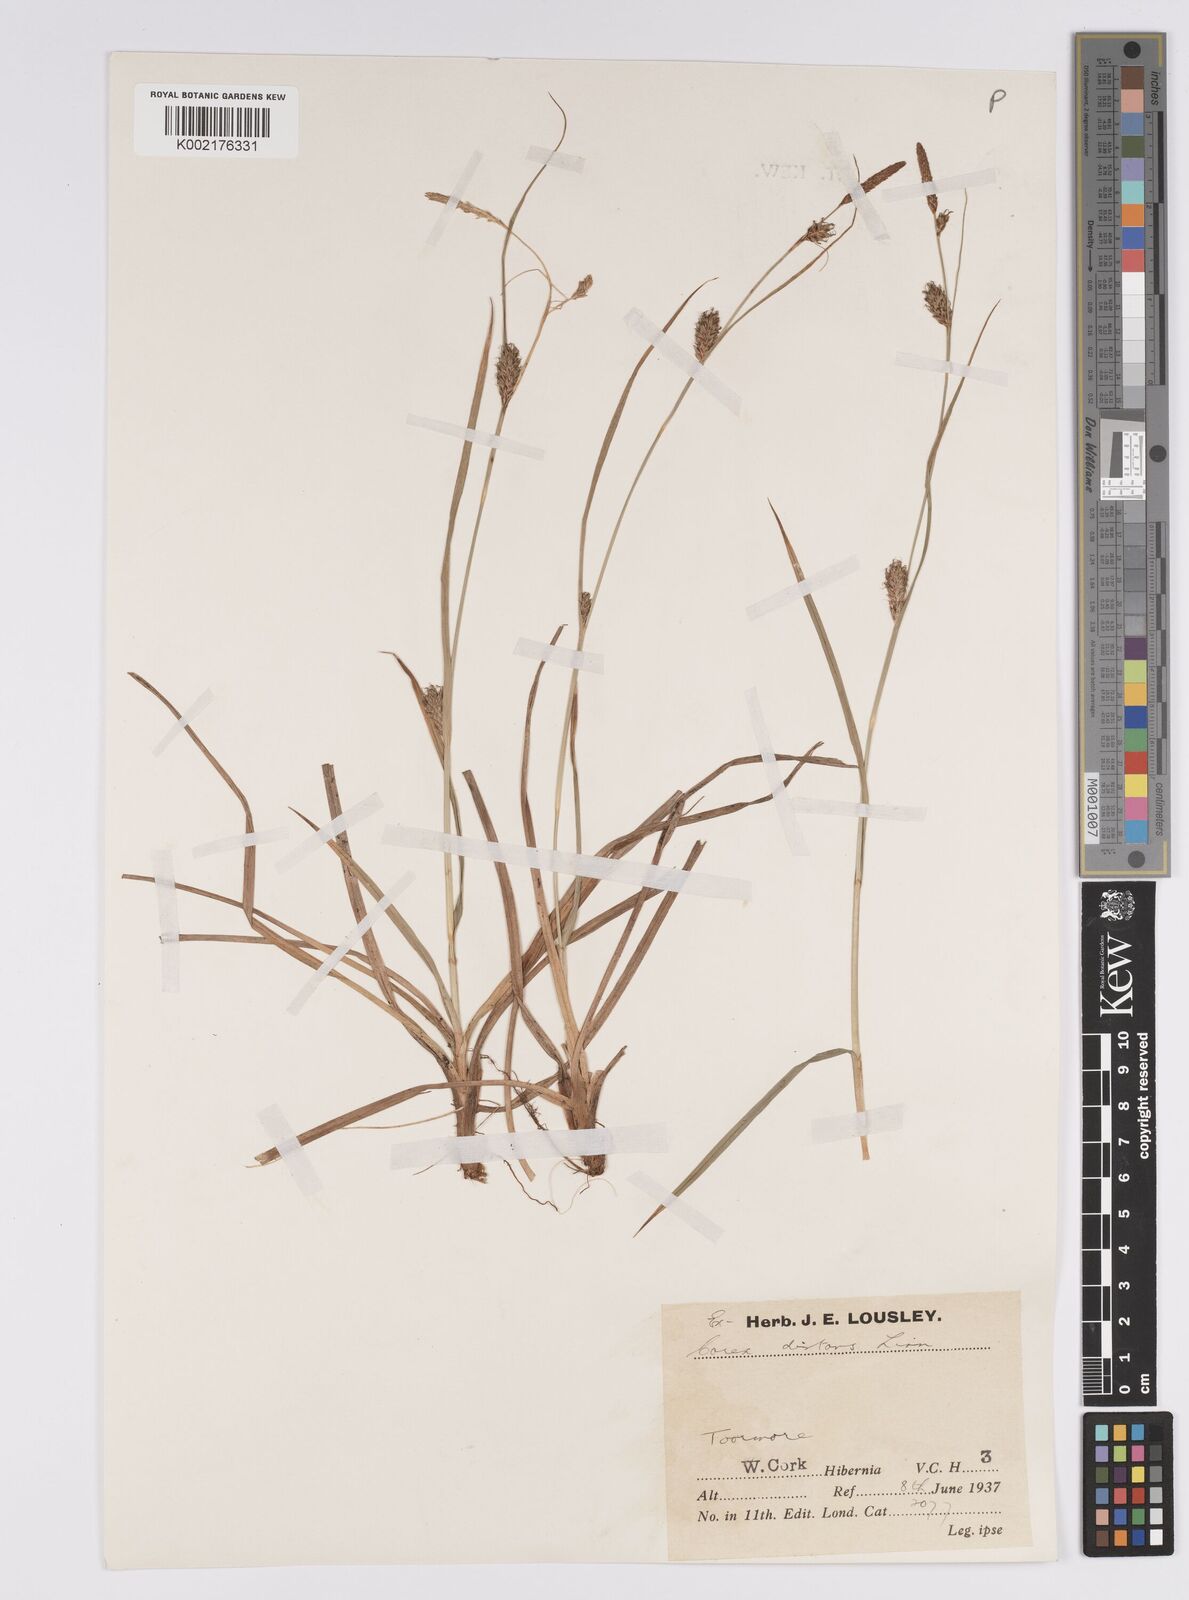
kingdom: Plantae
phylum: Tracheophyta
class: Liliopsida
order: Poales
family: Cyperaceae
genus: Carex
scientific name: Carex distans
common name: Distant sedge
